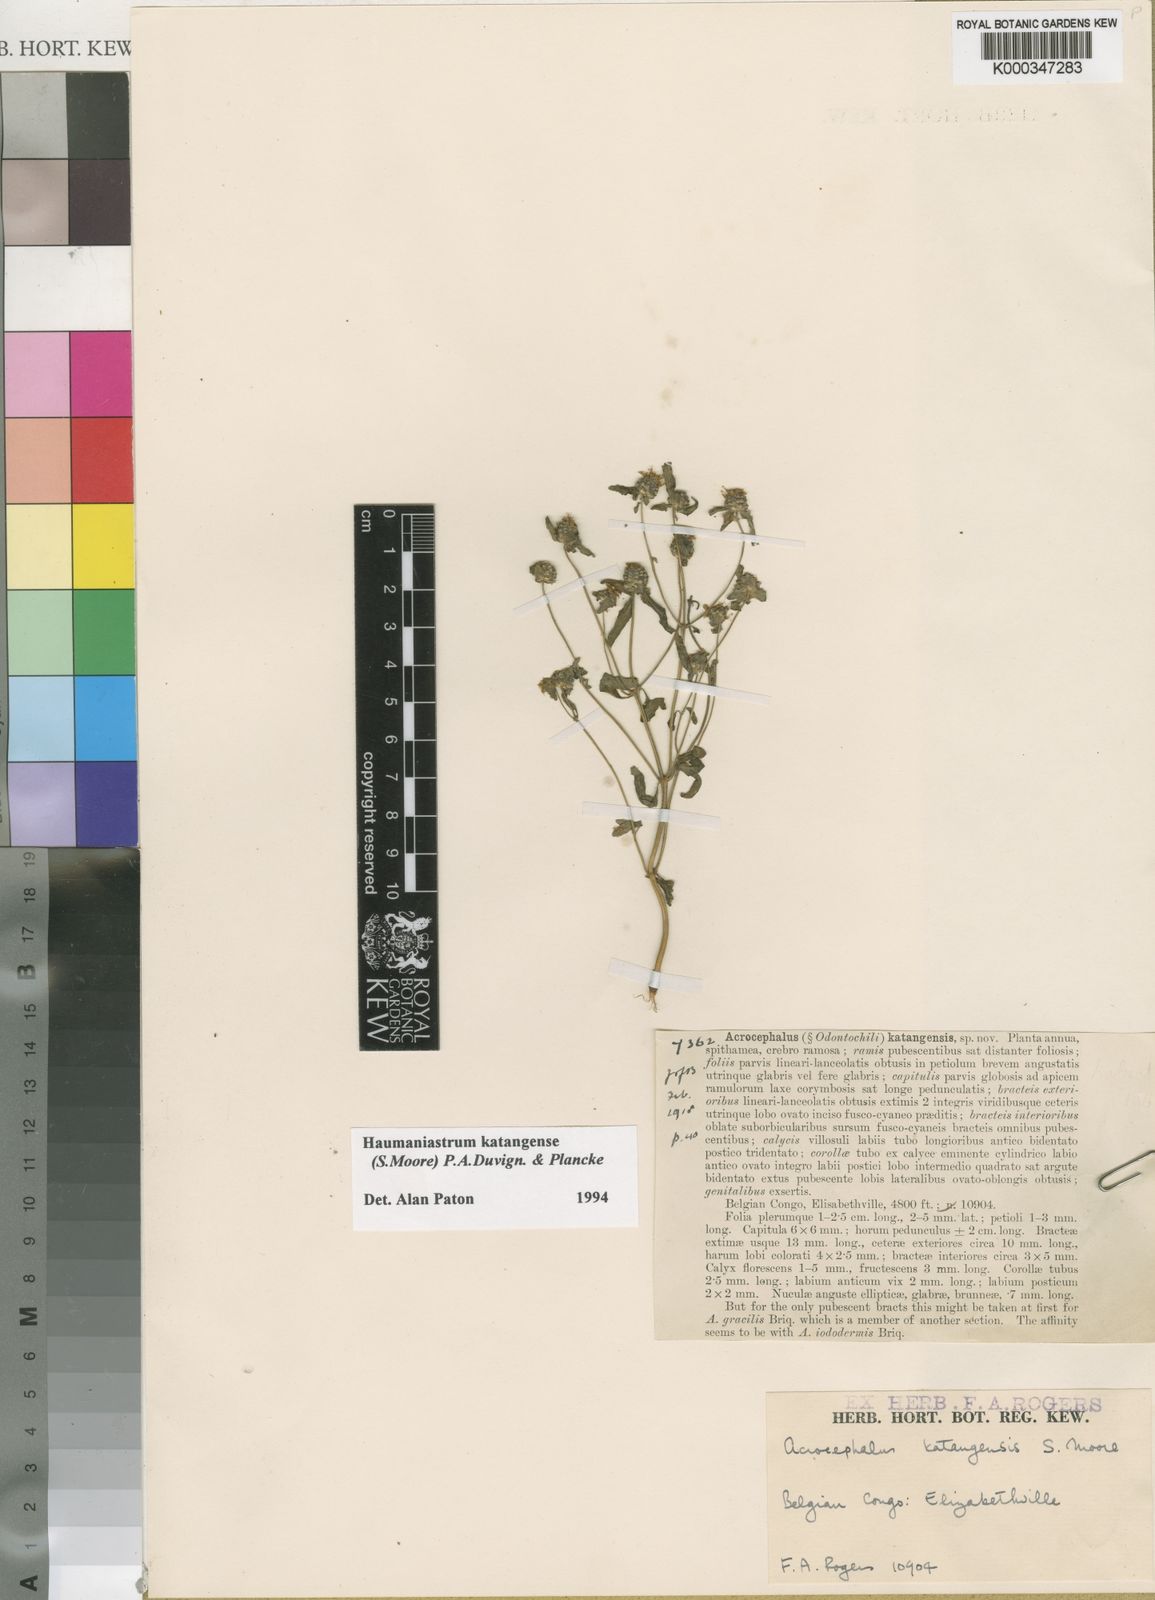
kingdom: Plantae
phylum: Tracheophyta
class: Magnoliopsida
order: Lamiales
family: Lamiaceae
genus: Haumaniastrum
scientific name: Haumaniastrum katangense
